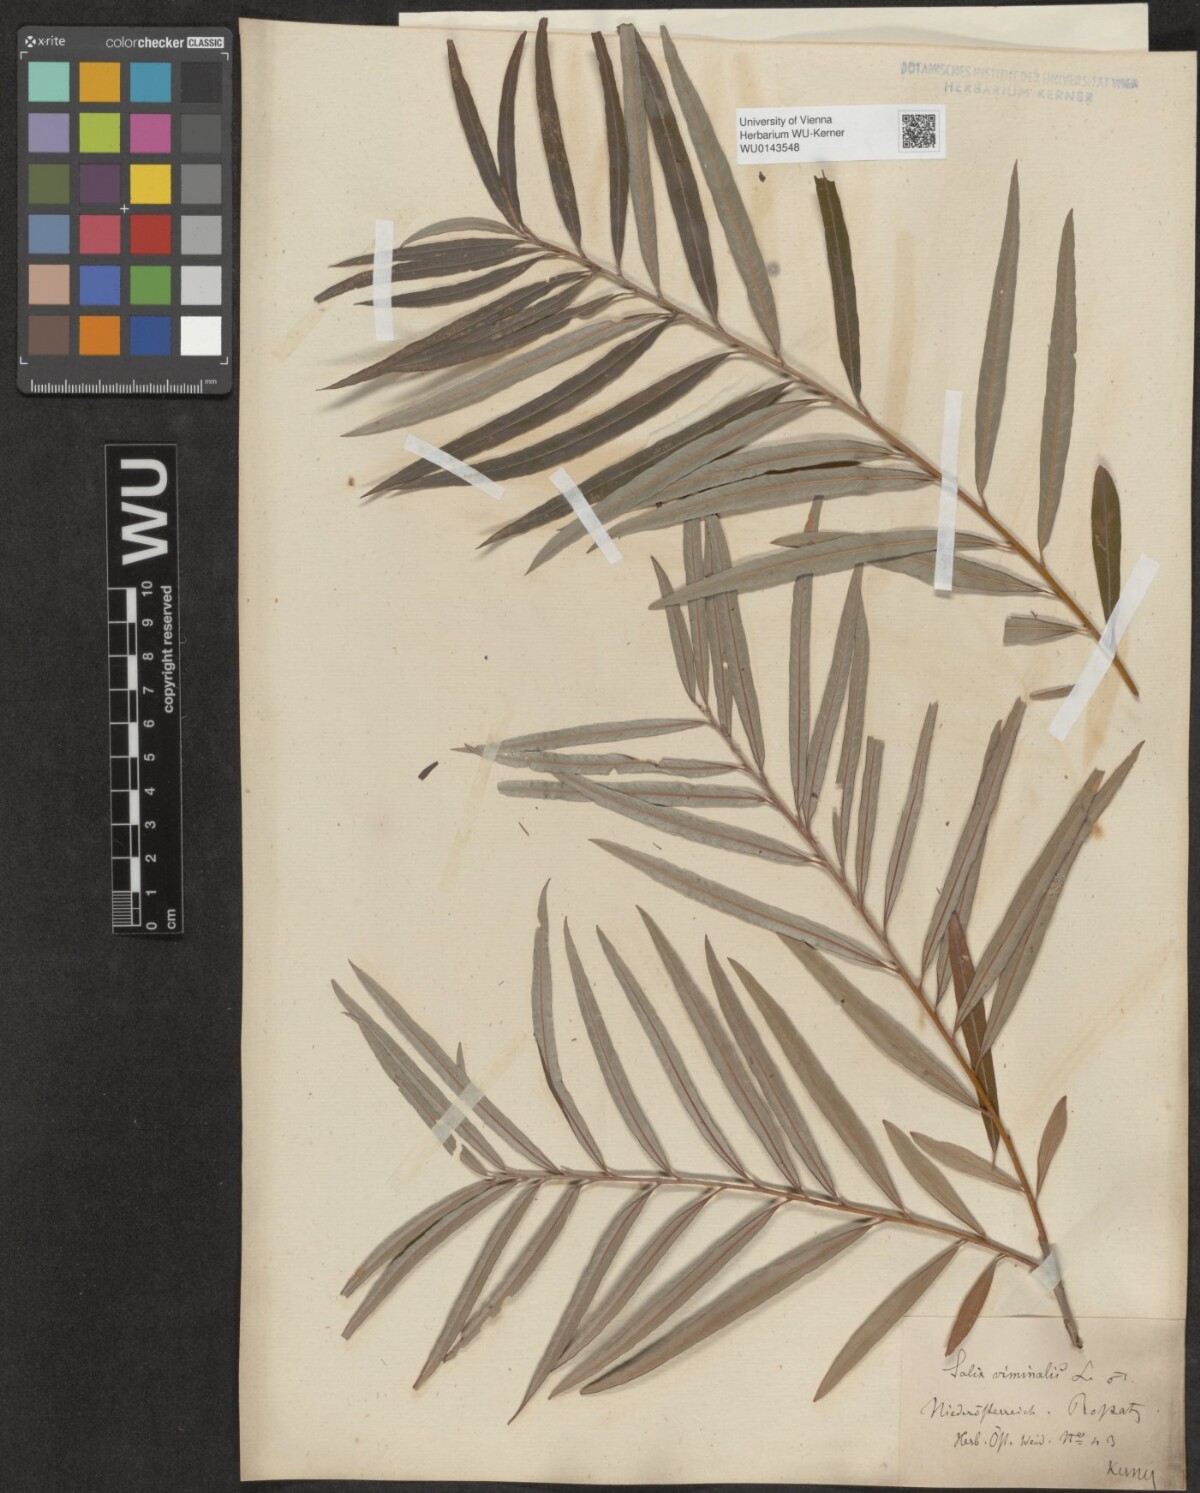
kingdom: Plantae
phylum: Tracheophyta
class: Magnoliopsida
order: Malpighiales
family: Salicaceae
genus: Salix
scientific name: Salix viminalis
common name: Osier
